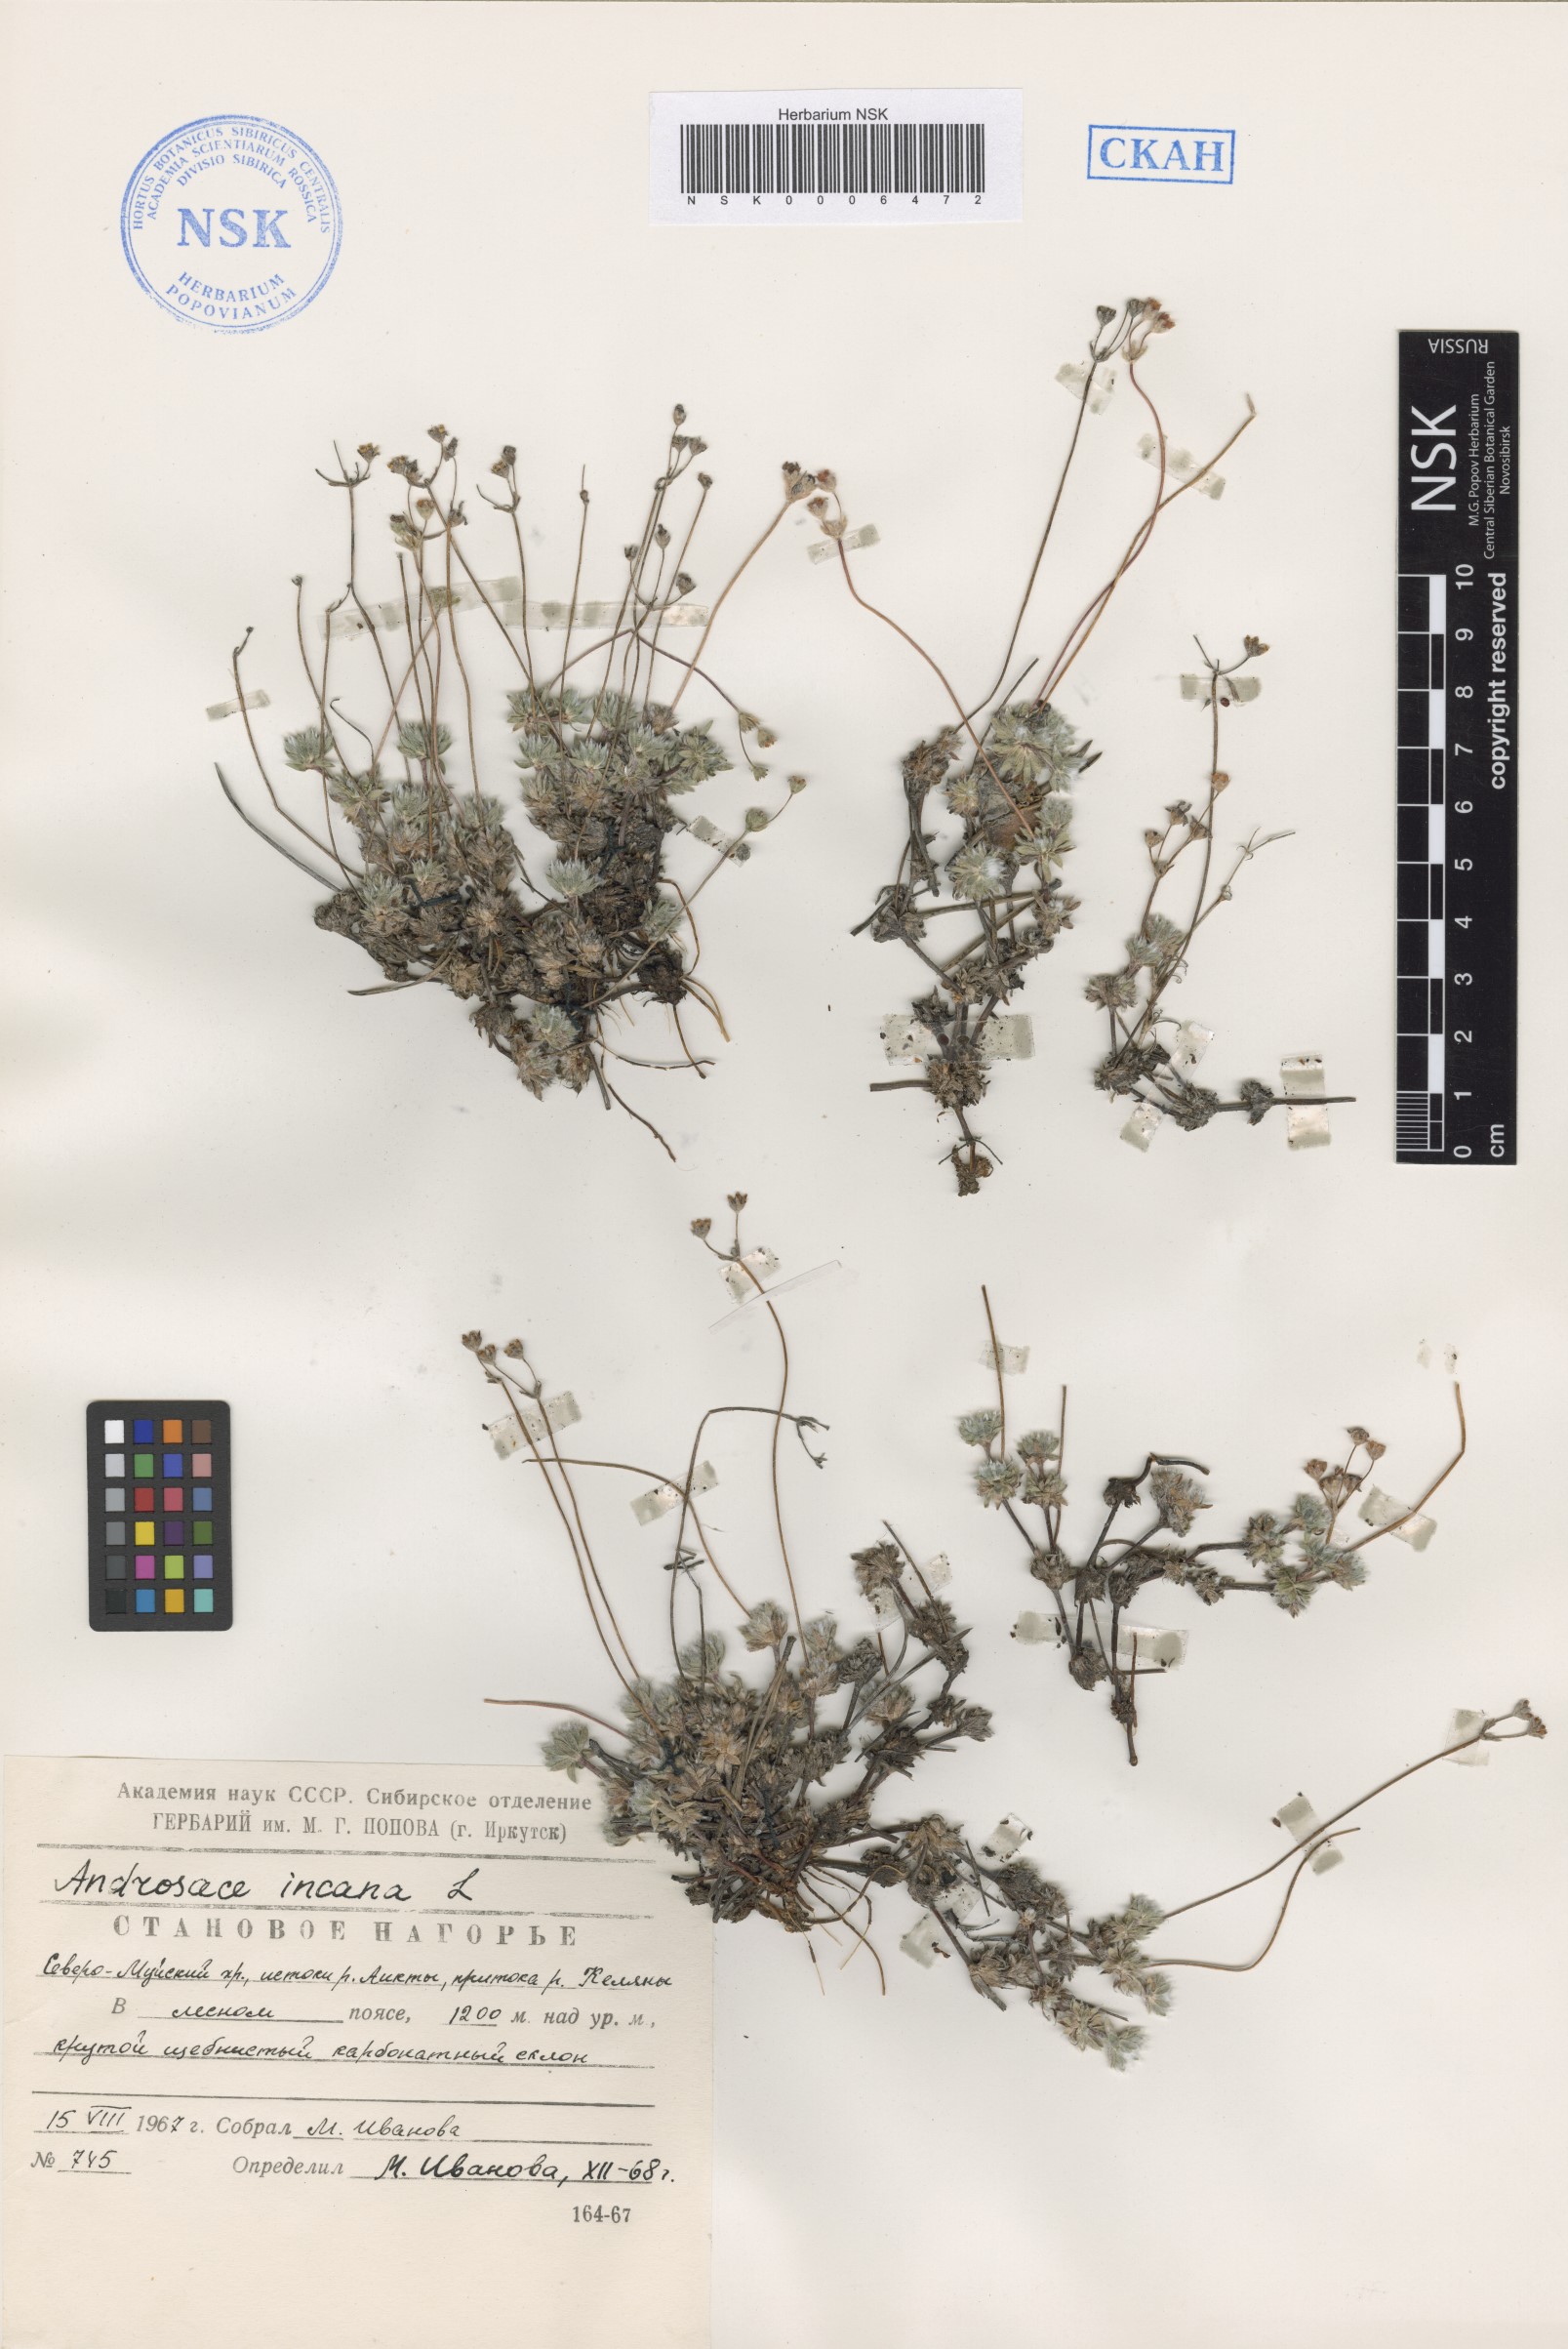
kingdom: Plantae
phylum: Tracheophyta
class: Magnoliopsida
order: Ericales
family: Primulaceae
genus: Androsace
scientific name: Androsace incana
